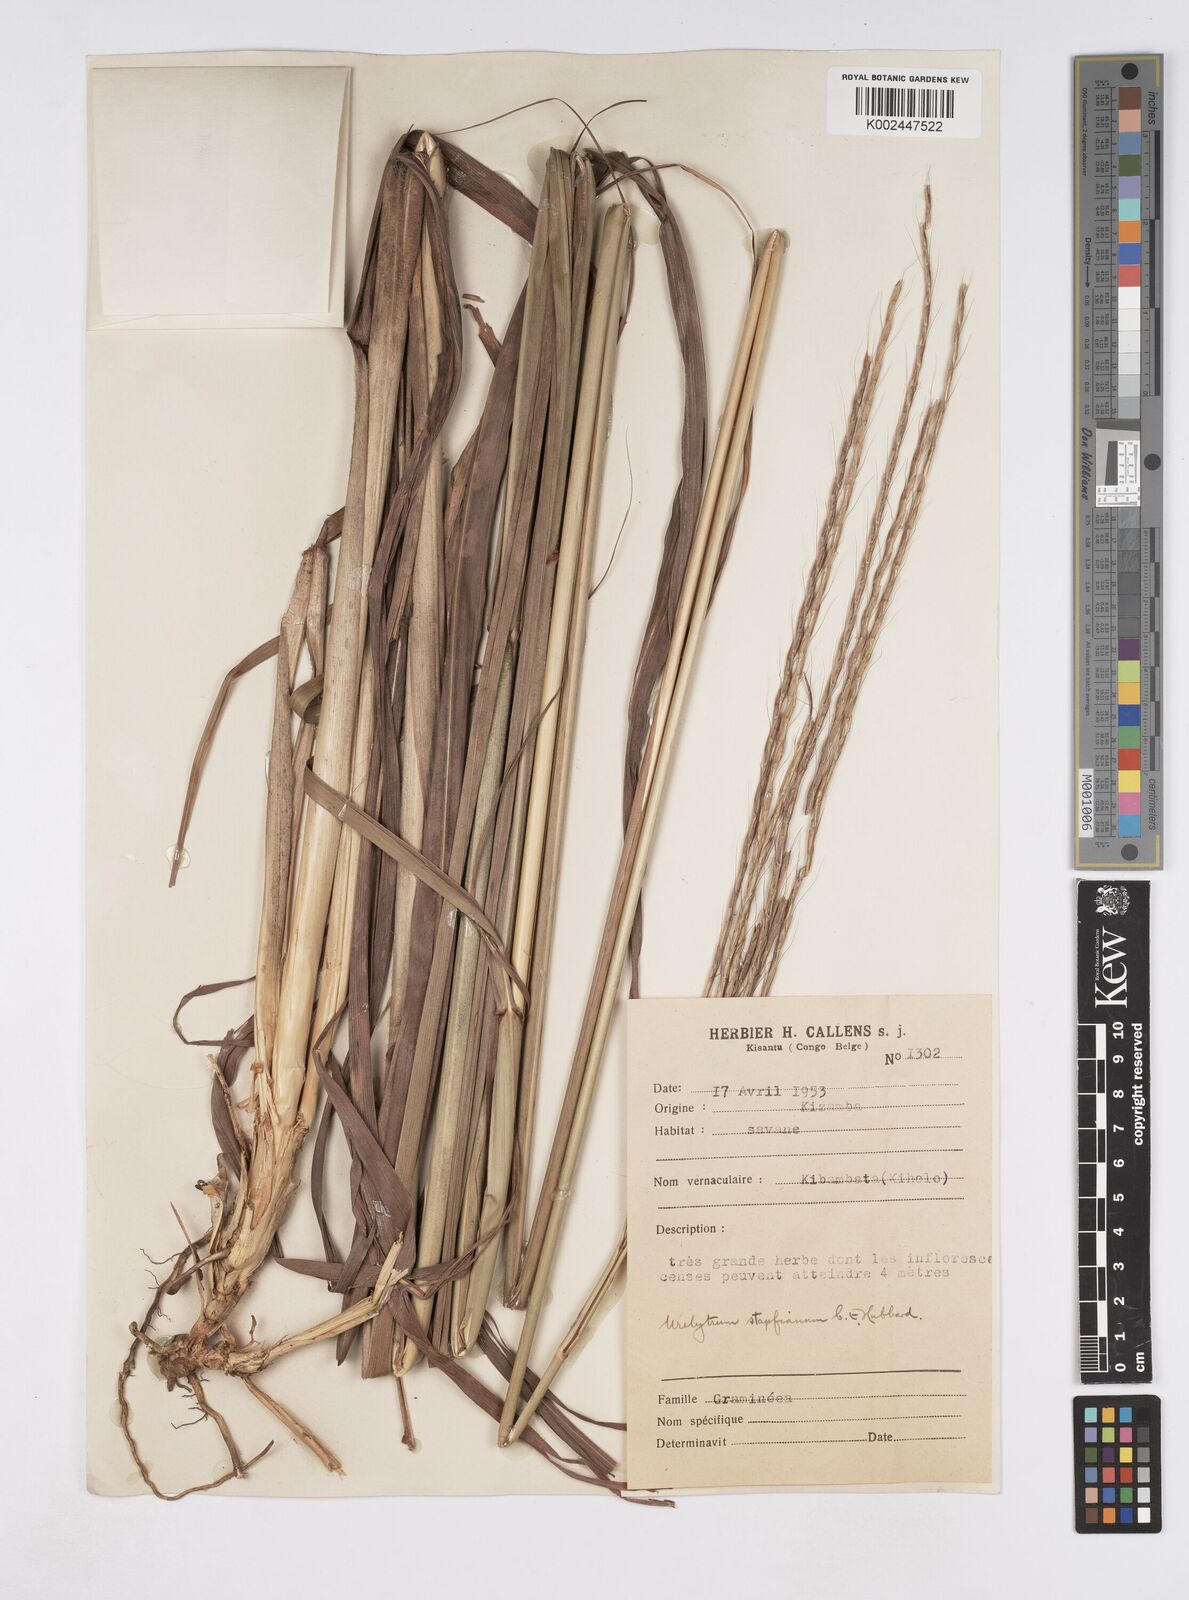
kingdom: Plantae
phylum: Tracheophyta
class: Liliopsida
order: Poales
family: Poaceae
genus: Urelytrum
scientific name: Urelytrum digitatum
